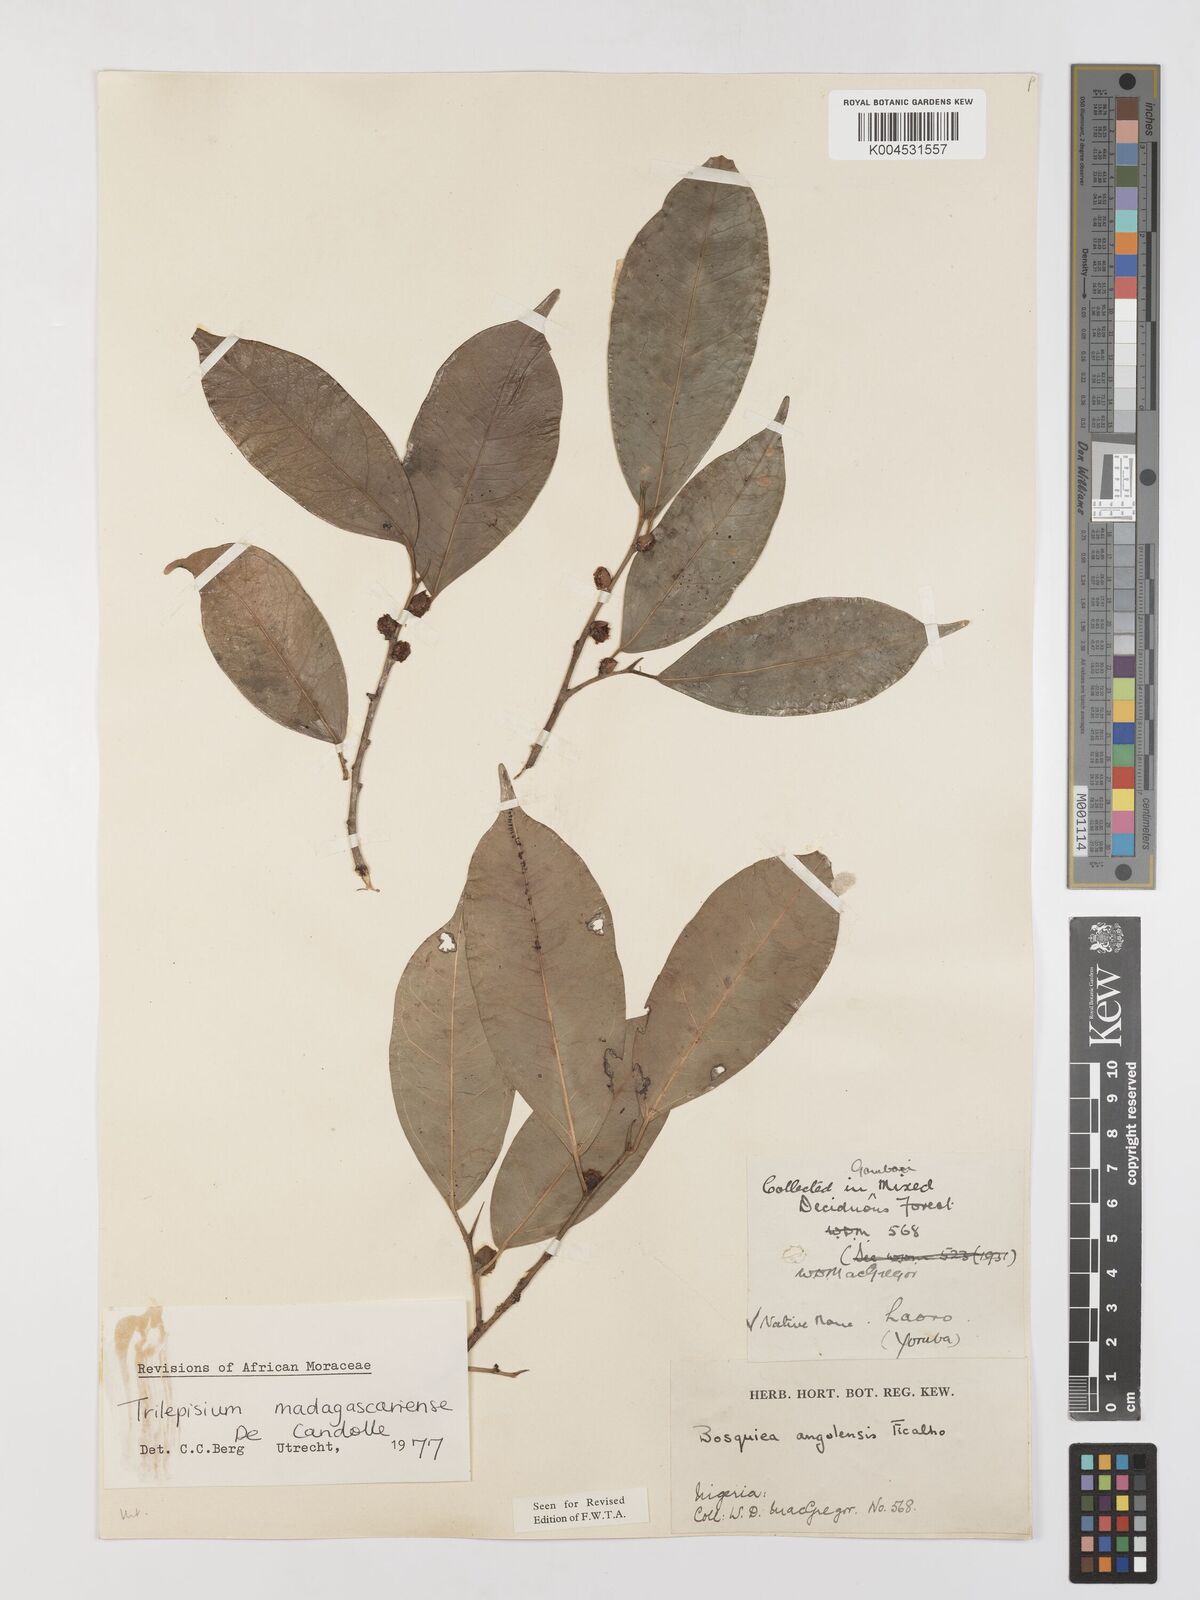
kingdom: Plantae
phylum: Tracheophyta
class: Magnoliopsida
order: Rosales
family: Moraceae
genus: Trilepisium
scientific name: Trilepisium madagascariense
